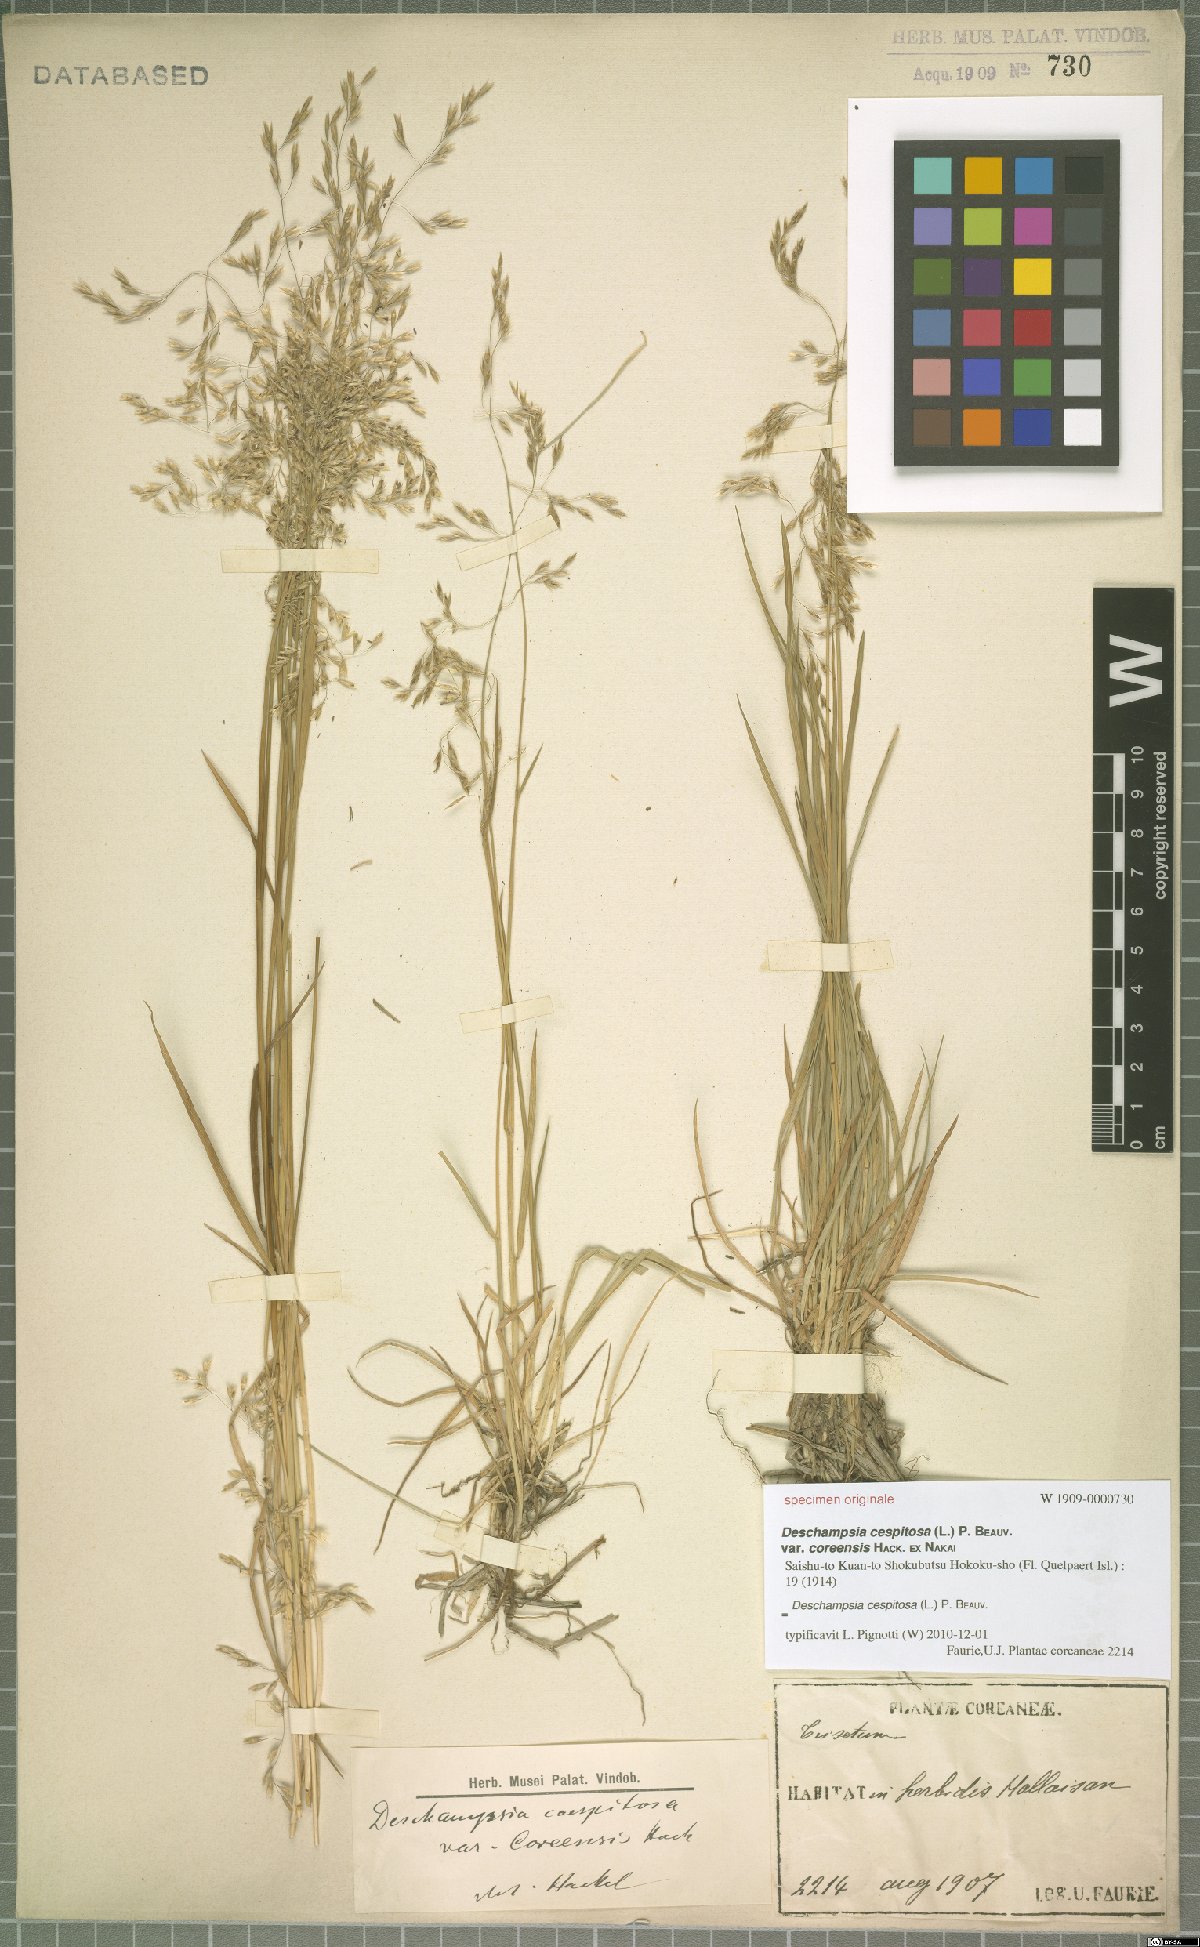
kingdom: Plantae
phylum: Tracheophyta
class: Liliopsida
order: Poales
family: Poaceae
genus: Deschampsia
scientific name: Deschampsia cespitosa
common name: Tufted hair-grass
